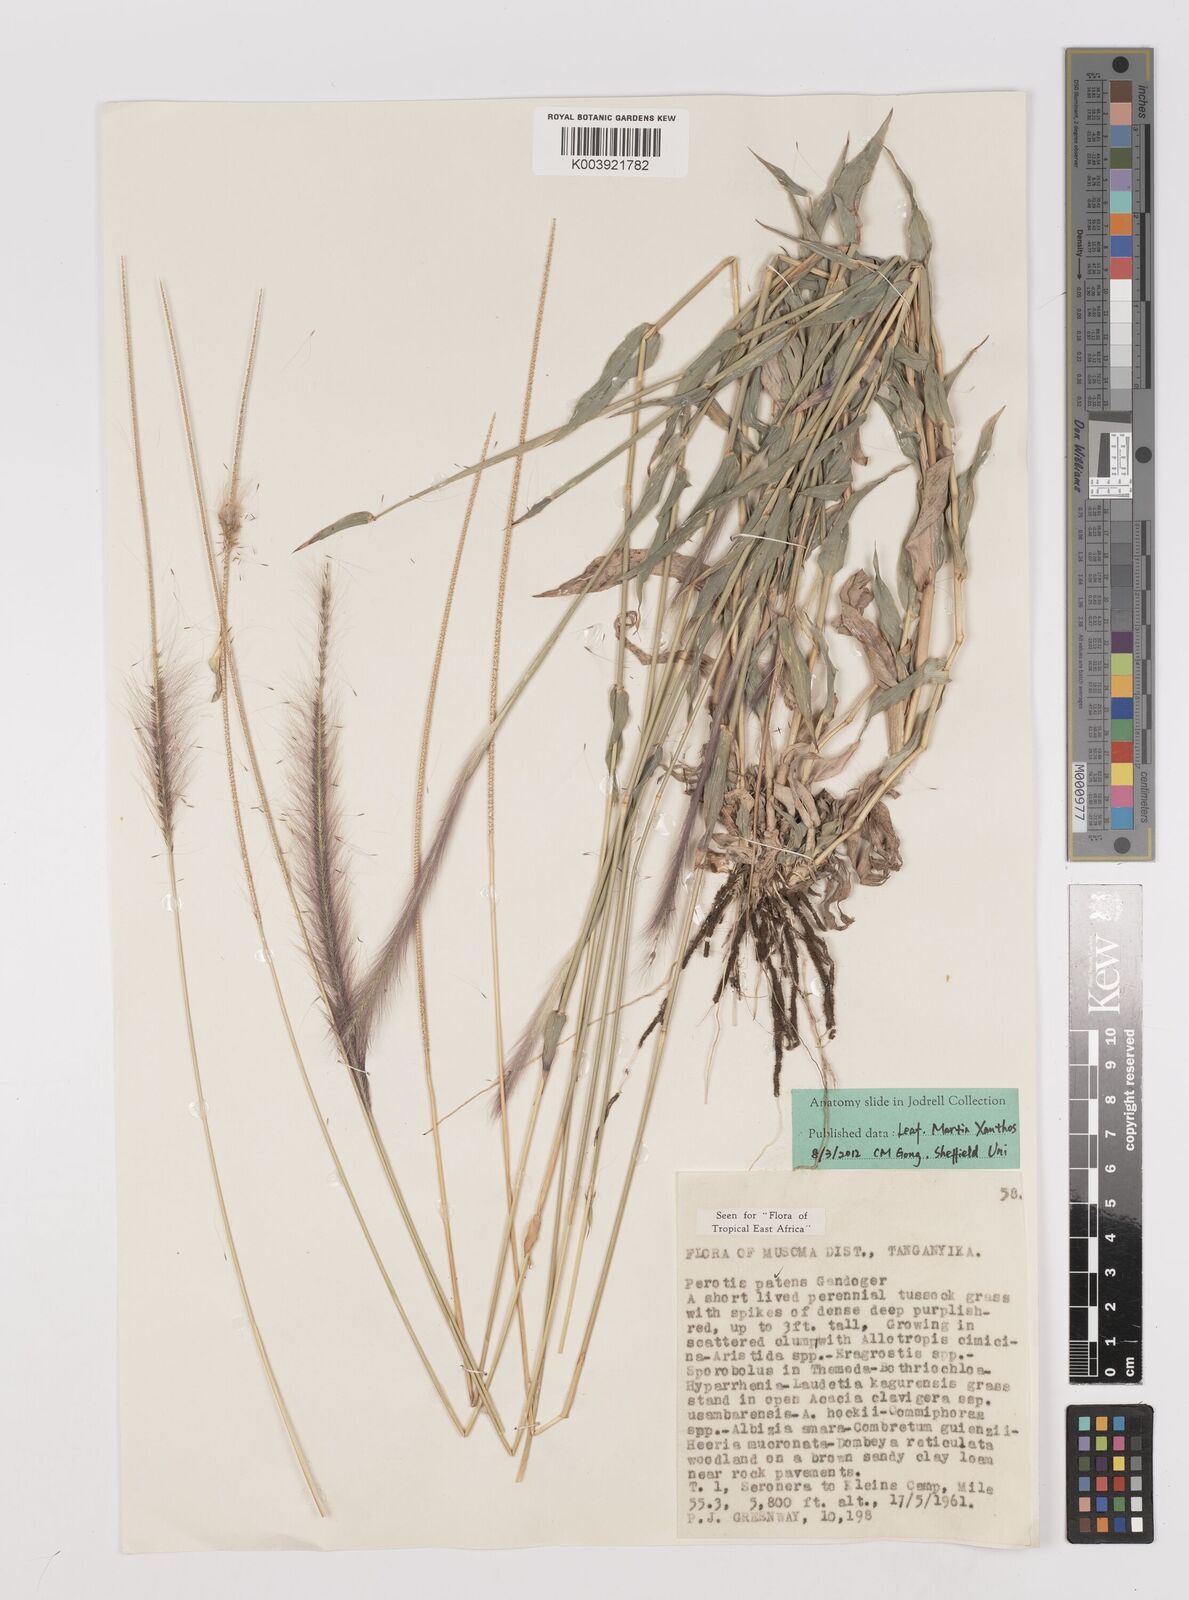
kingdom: Plantae
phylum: Tracheophyta
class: Liliopsida
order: Poales
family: Poaceae
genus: Perotis
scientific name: Perotis patens
